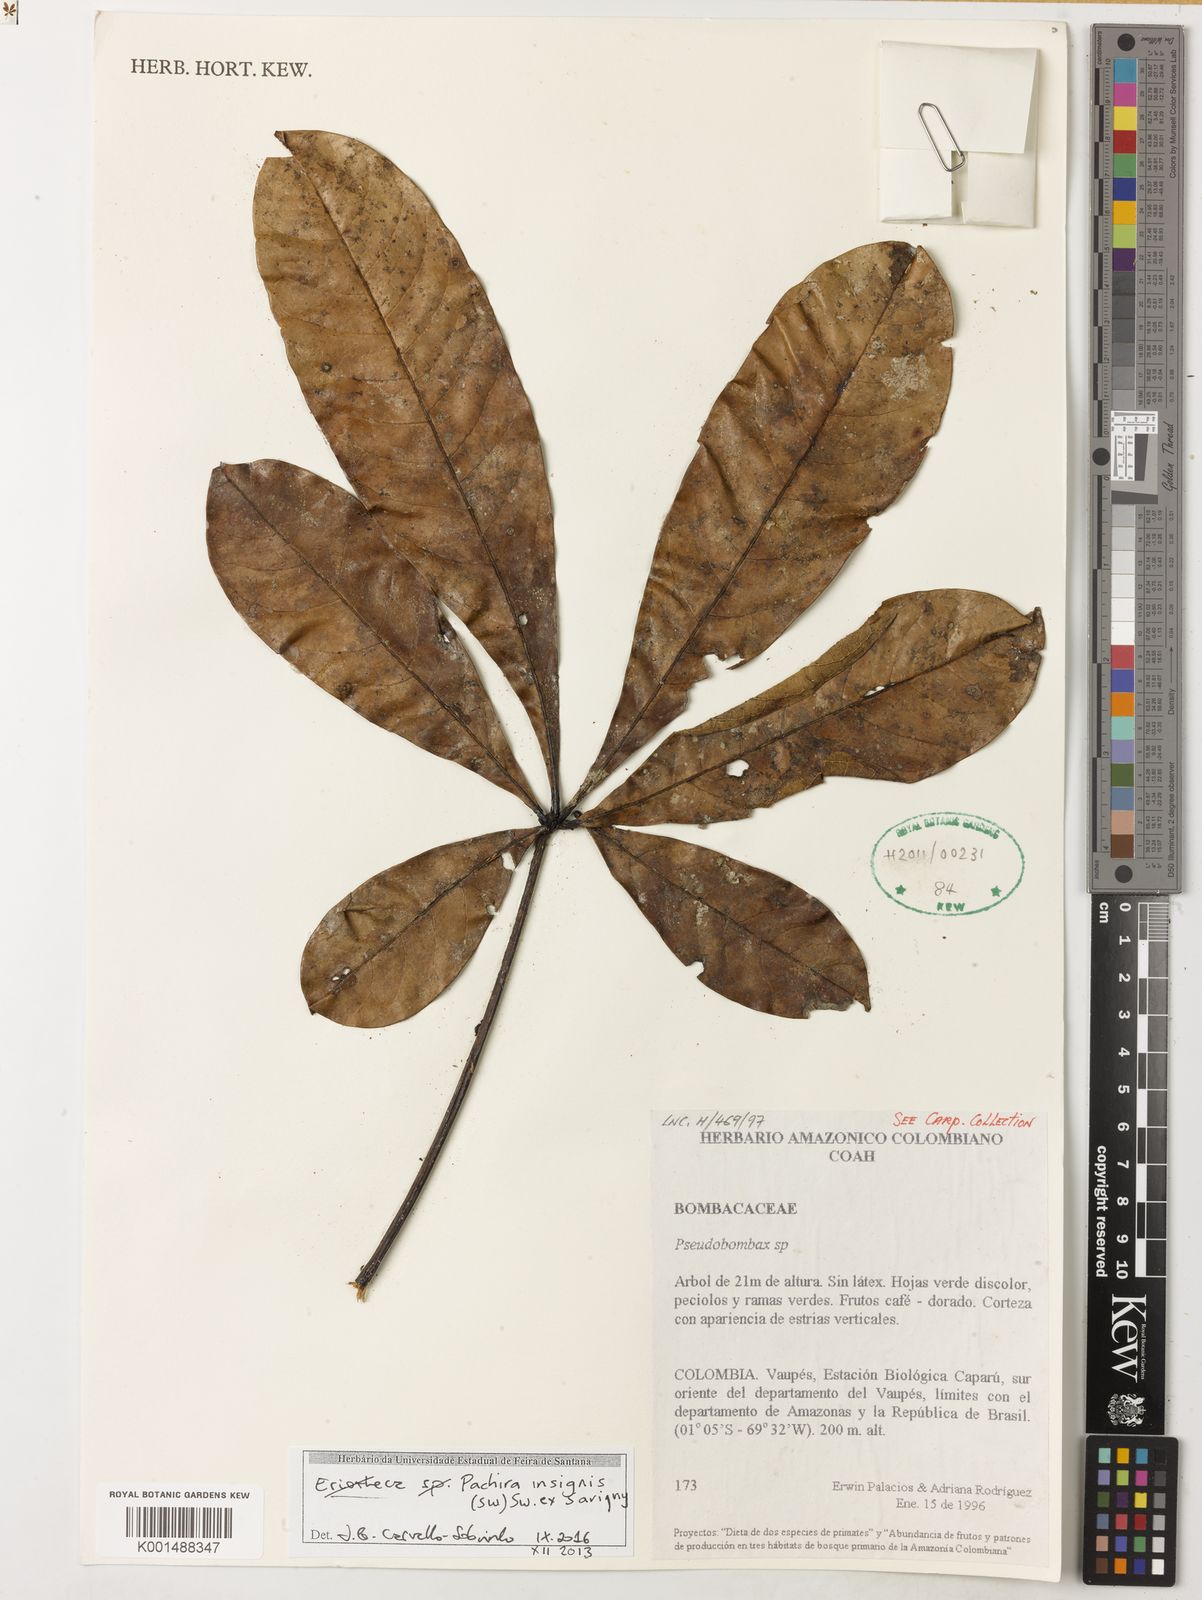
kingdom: Plantae
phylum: Tracheophyta
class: Magnoliopsida
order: Malvales
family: Malvaceae
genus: Pachira
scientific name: Pachira insignis
